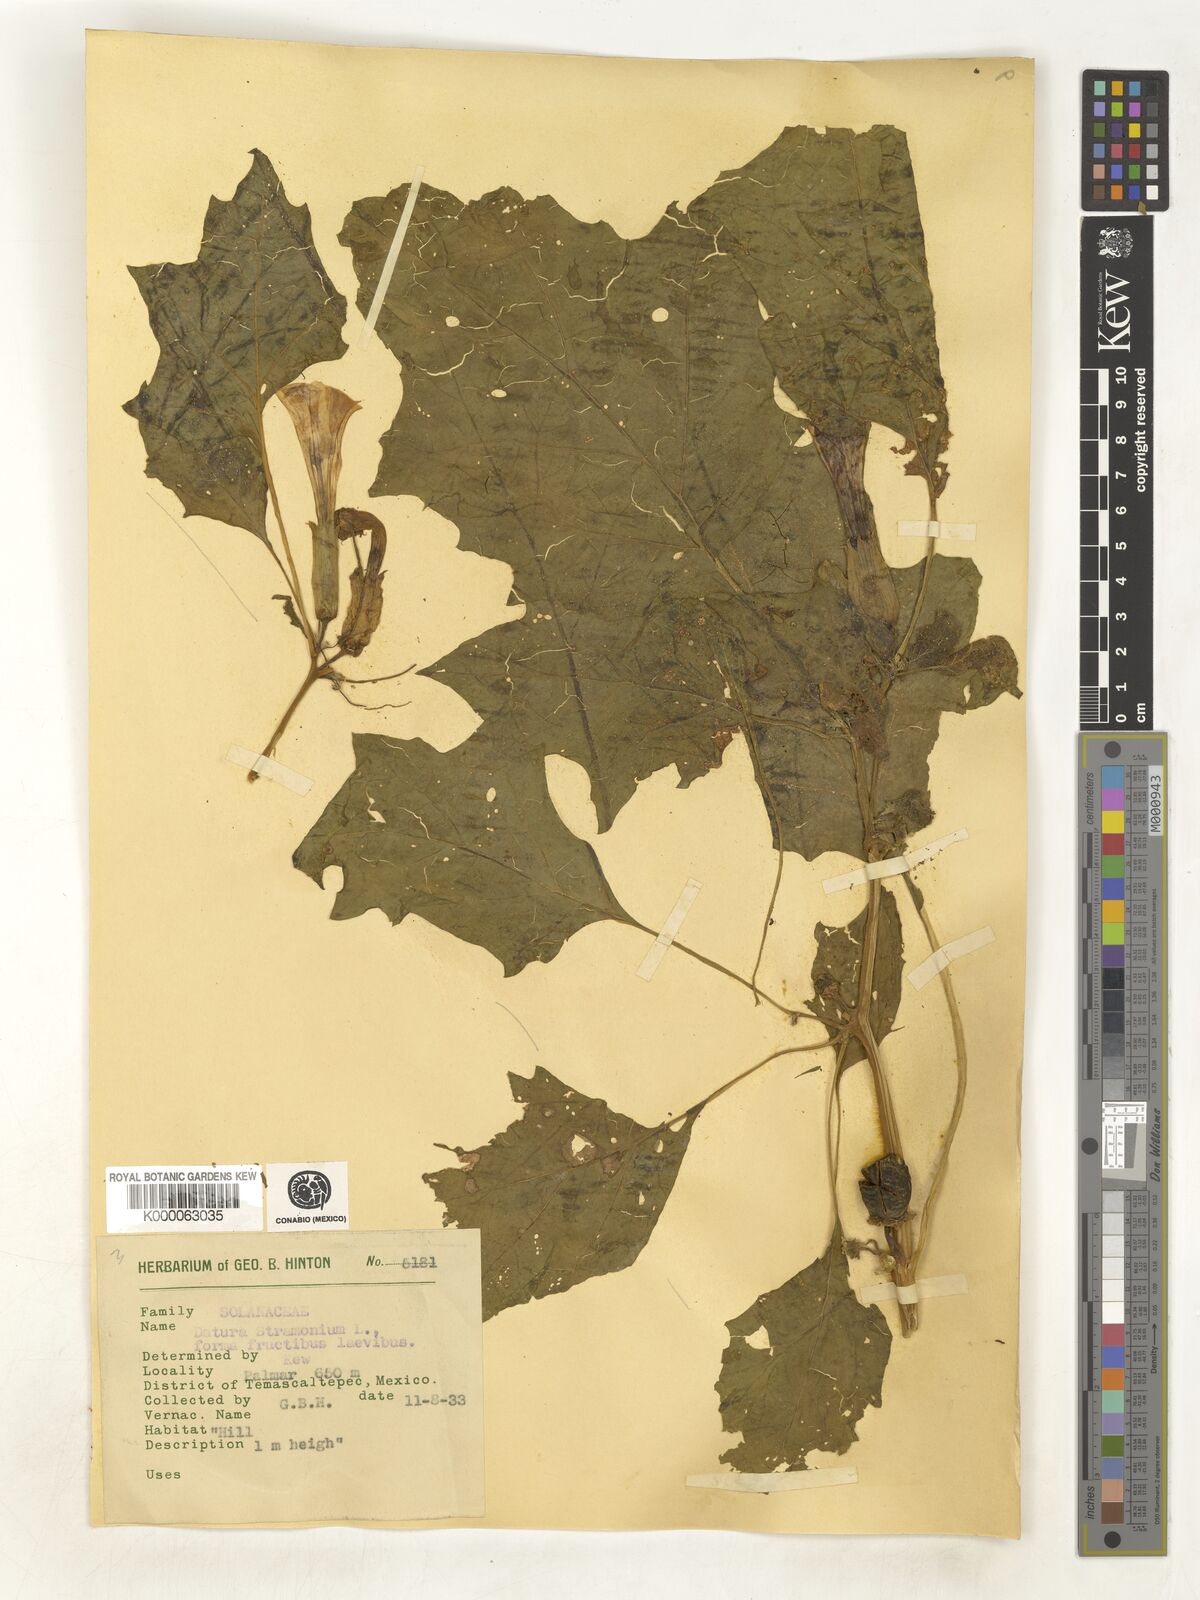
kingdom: Plantae
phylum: Tracheophyta
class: Magnoliopsida
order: Solanales
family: Solanaceae
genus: Datura
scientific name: Datura stramonium
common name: Thorn-apple
